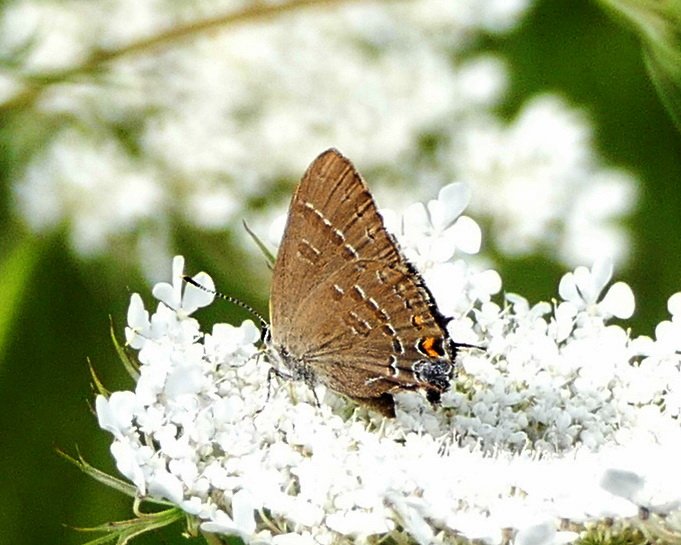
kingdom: Animalia
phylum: Arthropoda
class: Insecta
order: Lepidoptera
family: Lycaenidae
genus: Satyrium
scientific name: Satyrium calanus
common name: Banded Hairstreak
